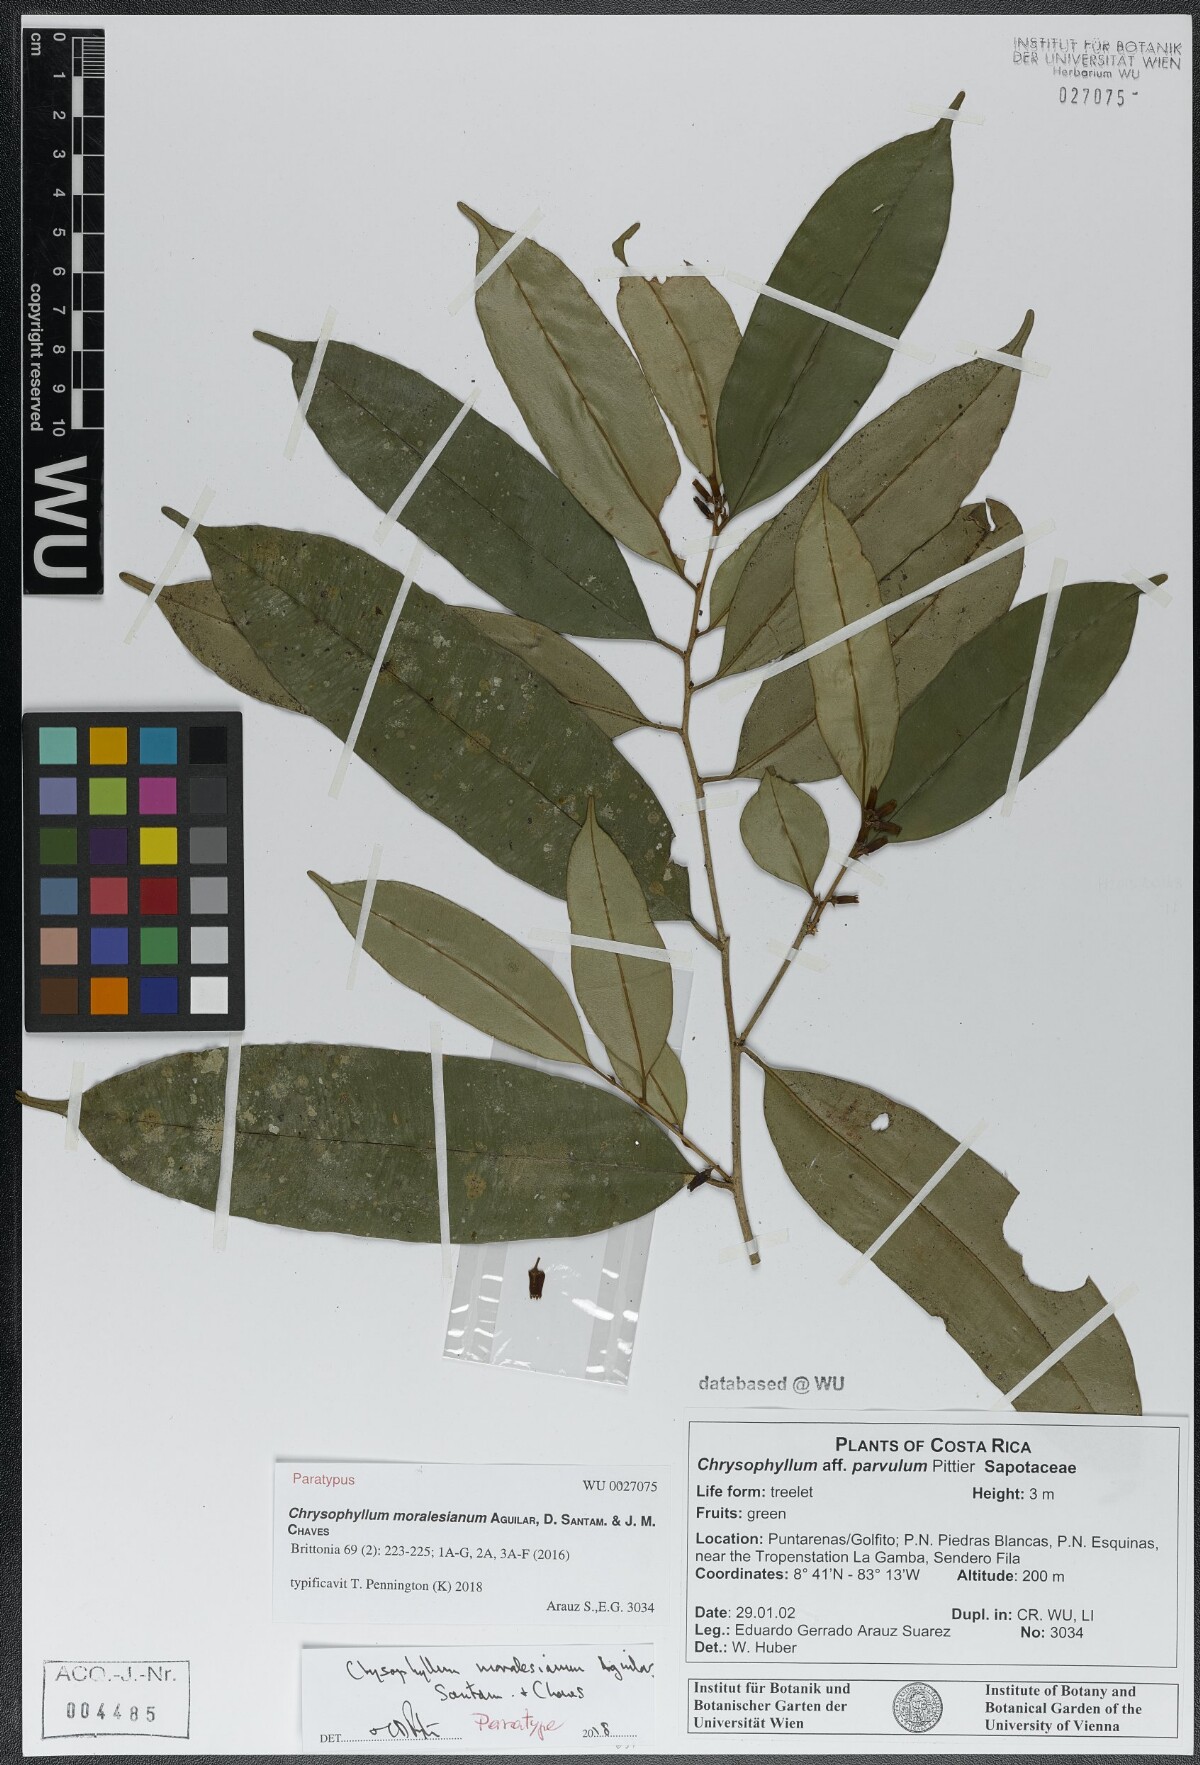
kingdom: Plantae
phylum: Tracheophyta
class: Magnoliopsida
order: Ericales
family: Sapotaceae
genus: Chrysophyllum
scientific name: Chrysophyllum moralesianum
